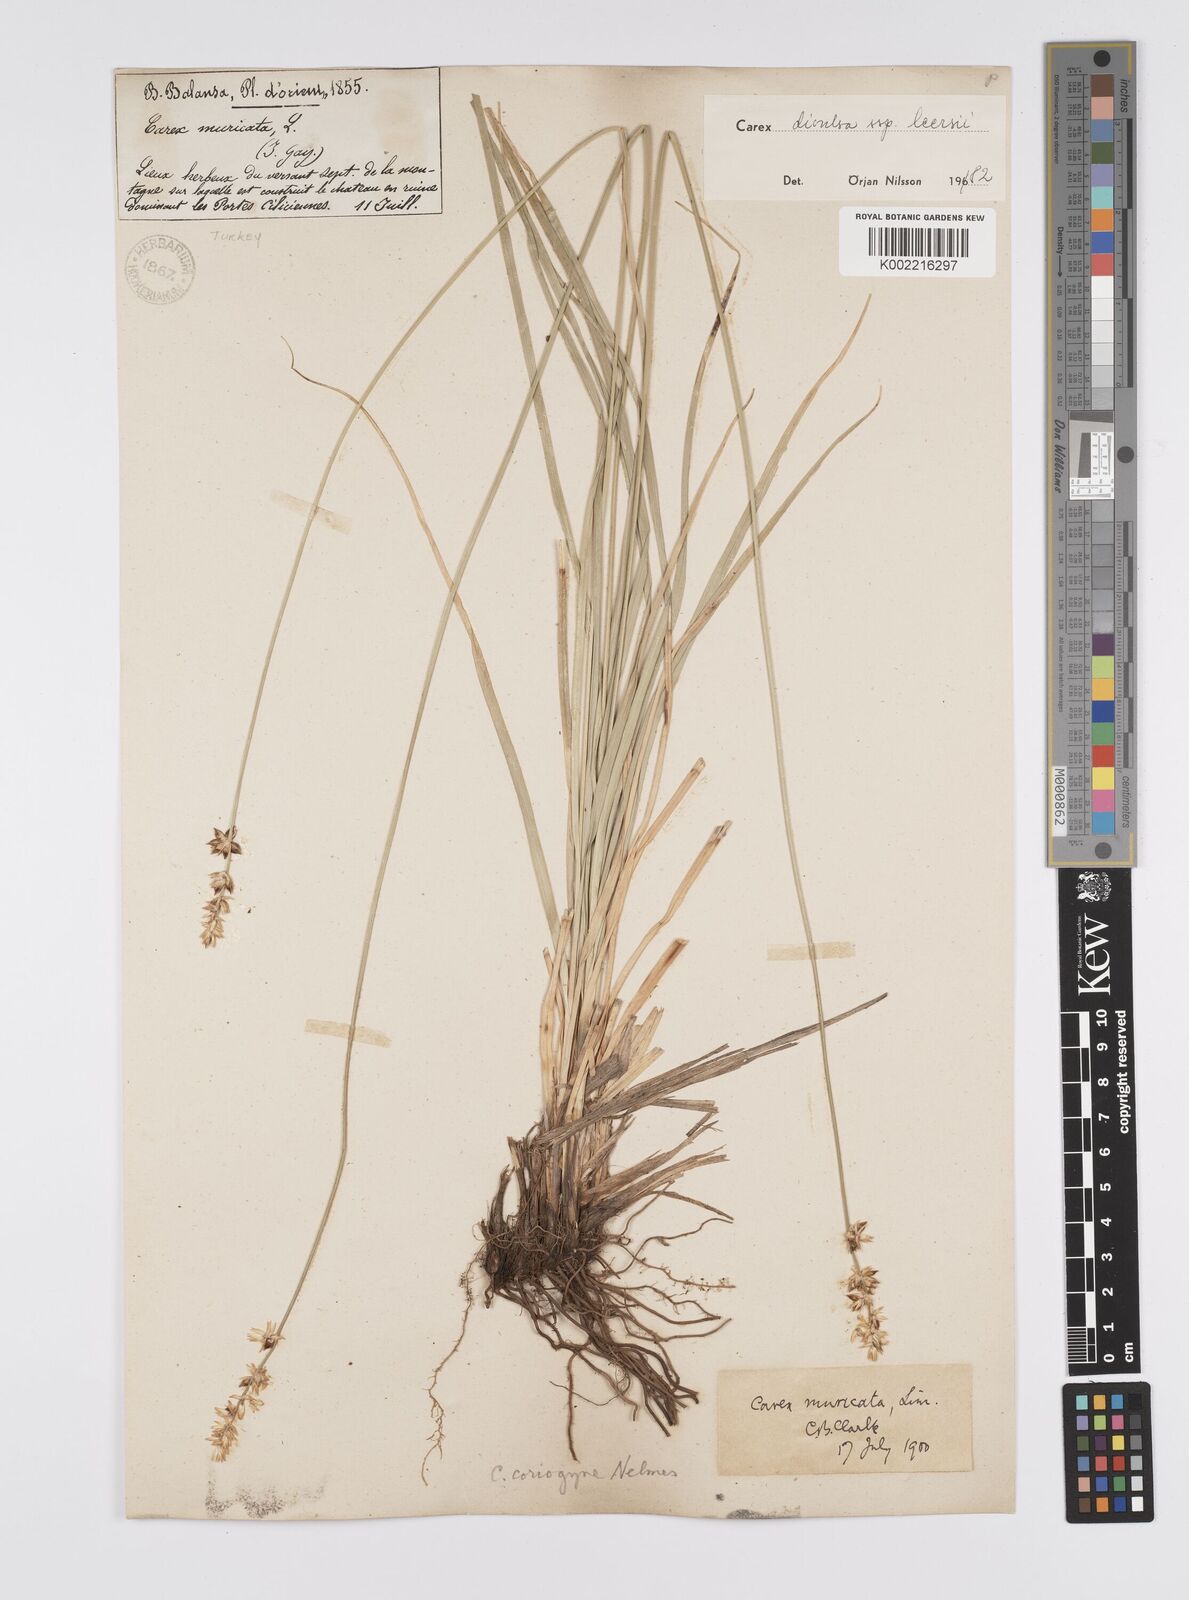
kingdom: Plantae
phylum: Tracheophyta
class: Liliopsida
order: Poales
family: Cyperaceae
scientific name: Cyperaceae
